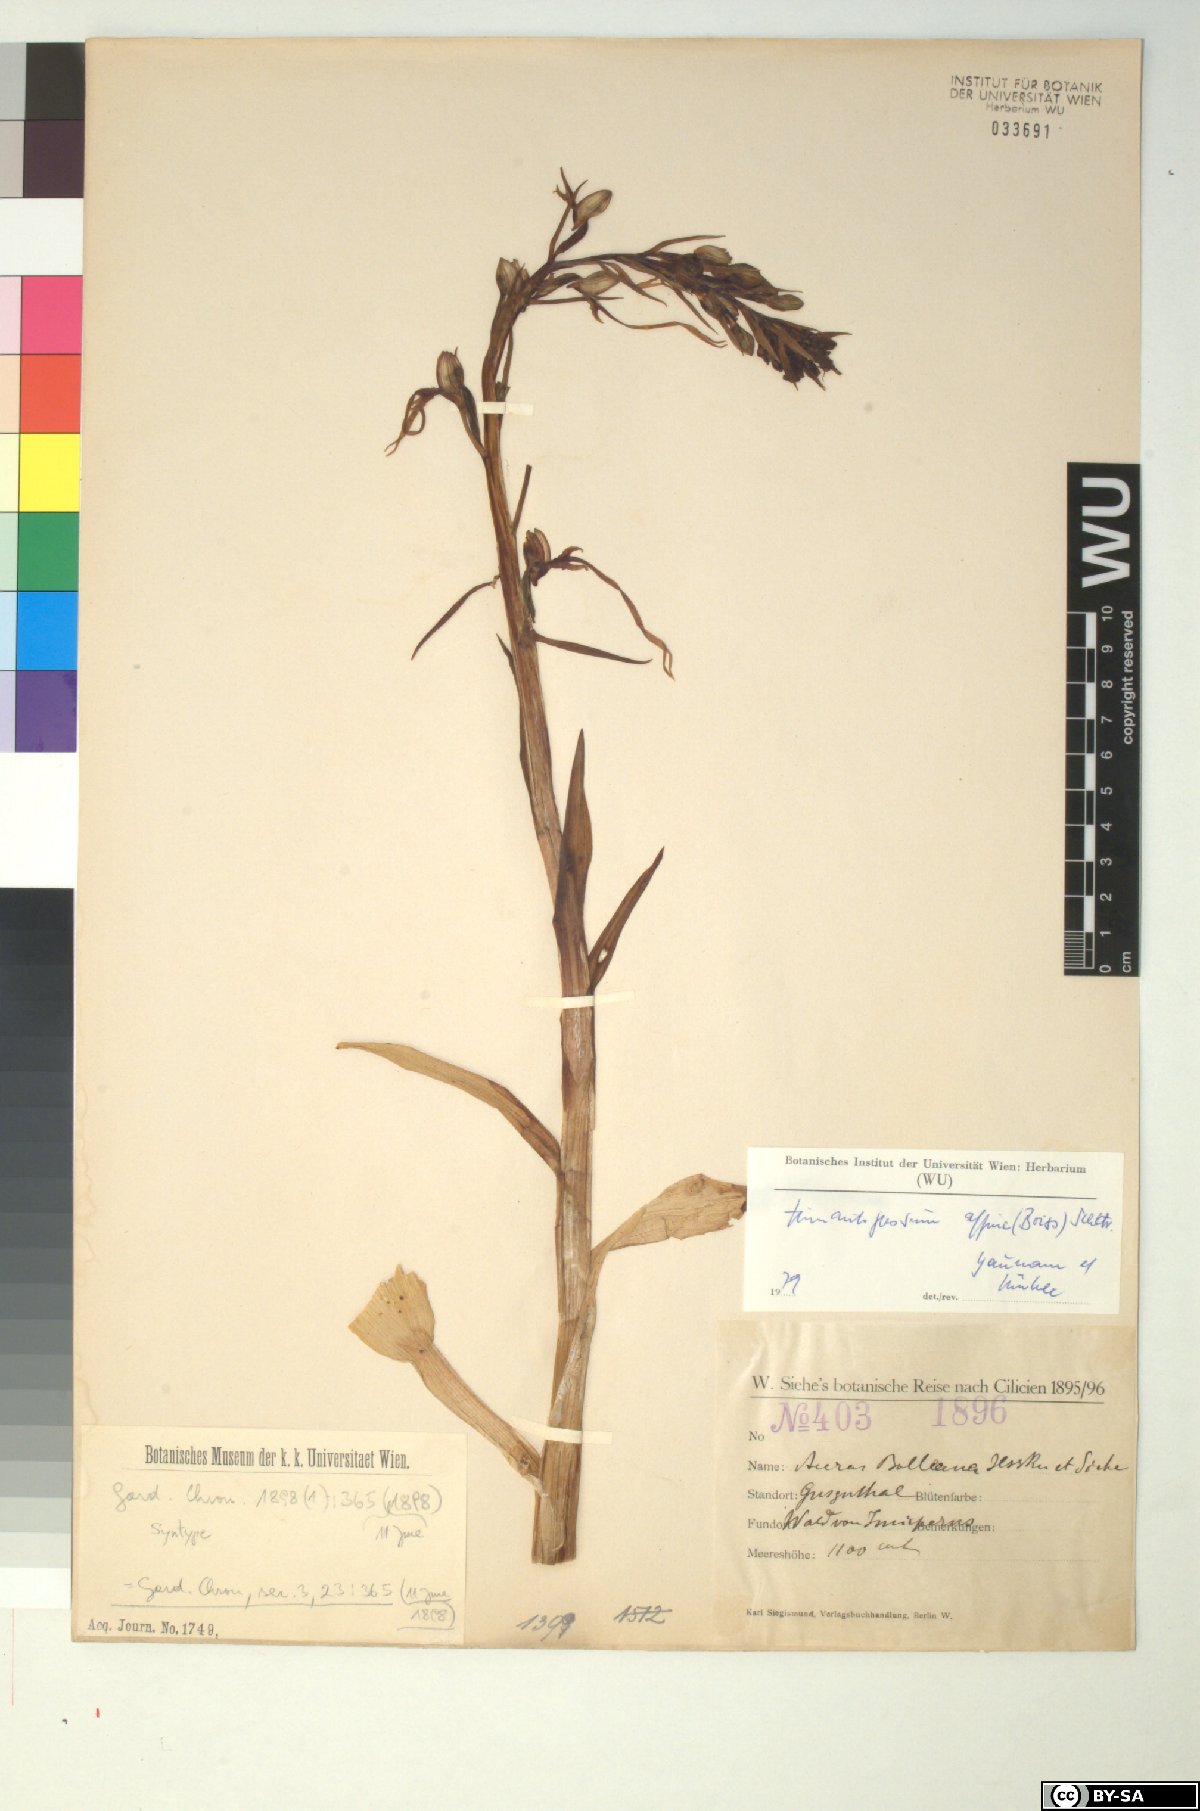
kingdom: Plantae
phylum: Tracheophyta
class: Liliopsida
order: Asparagales
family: Orchidaceae
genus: Himantoglossum
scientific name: Himantoglossum caprinum
